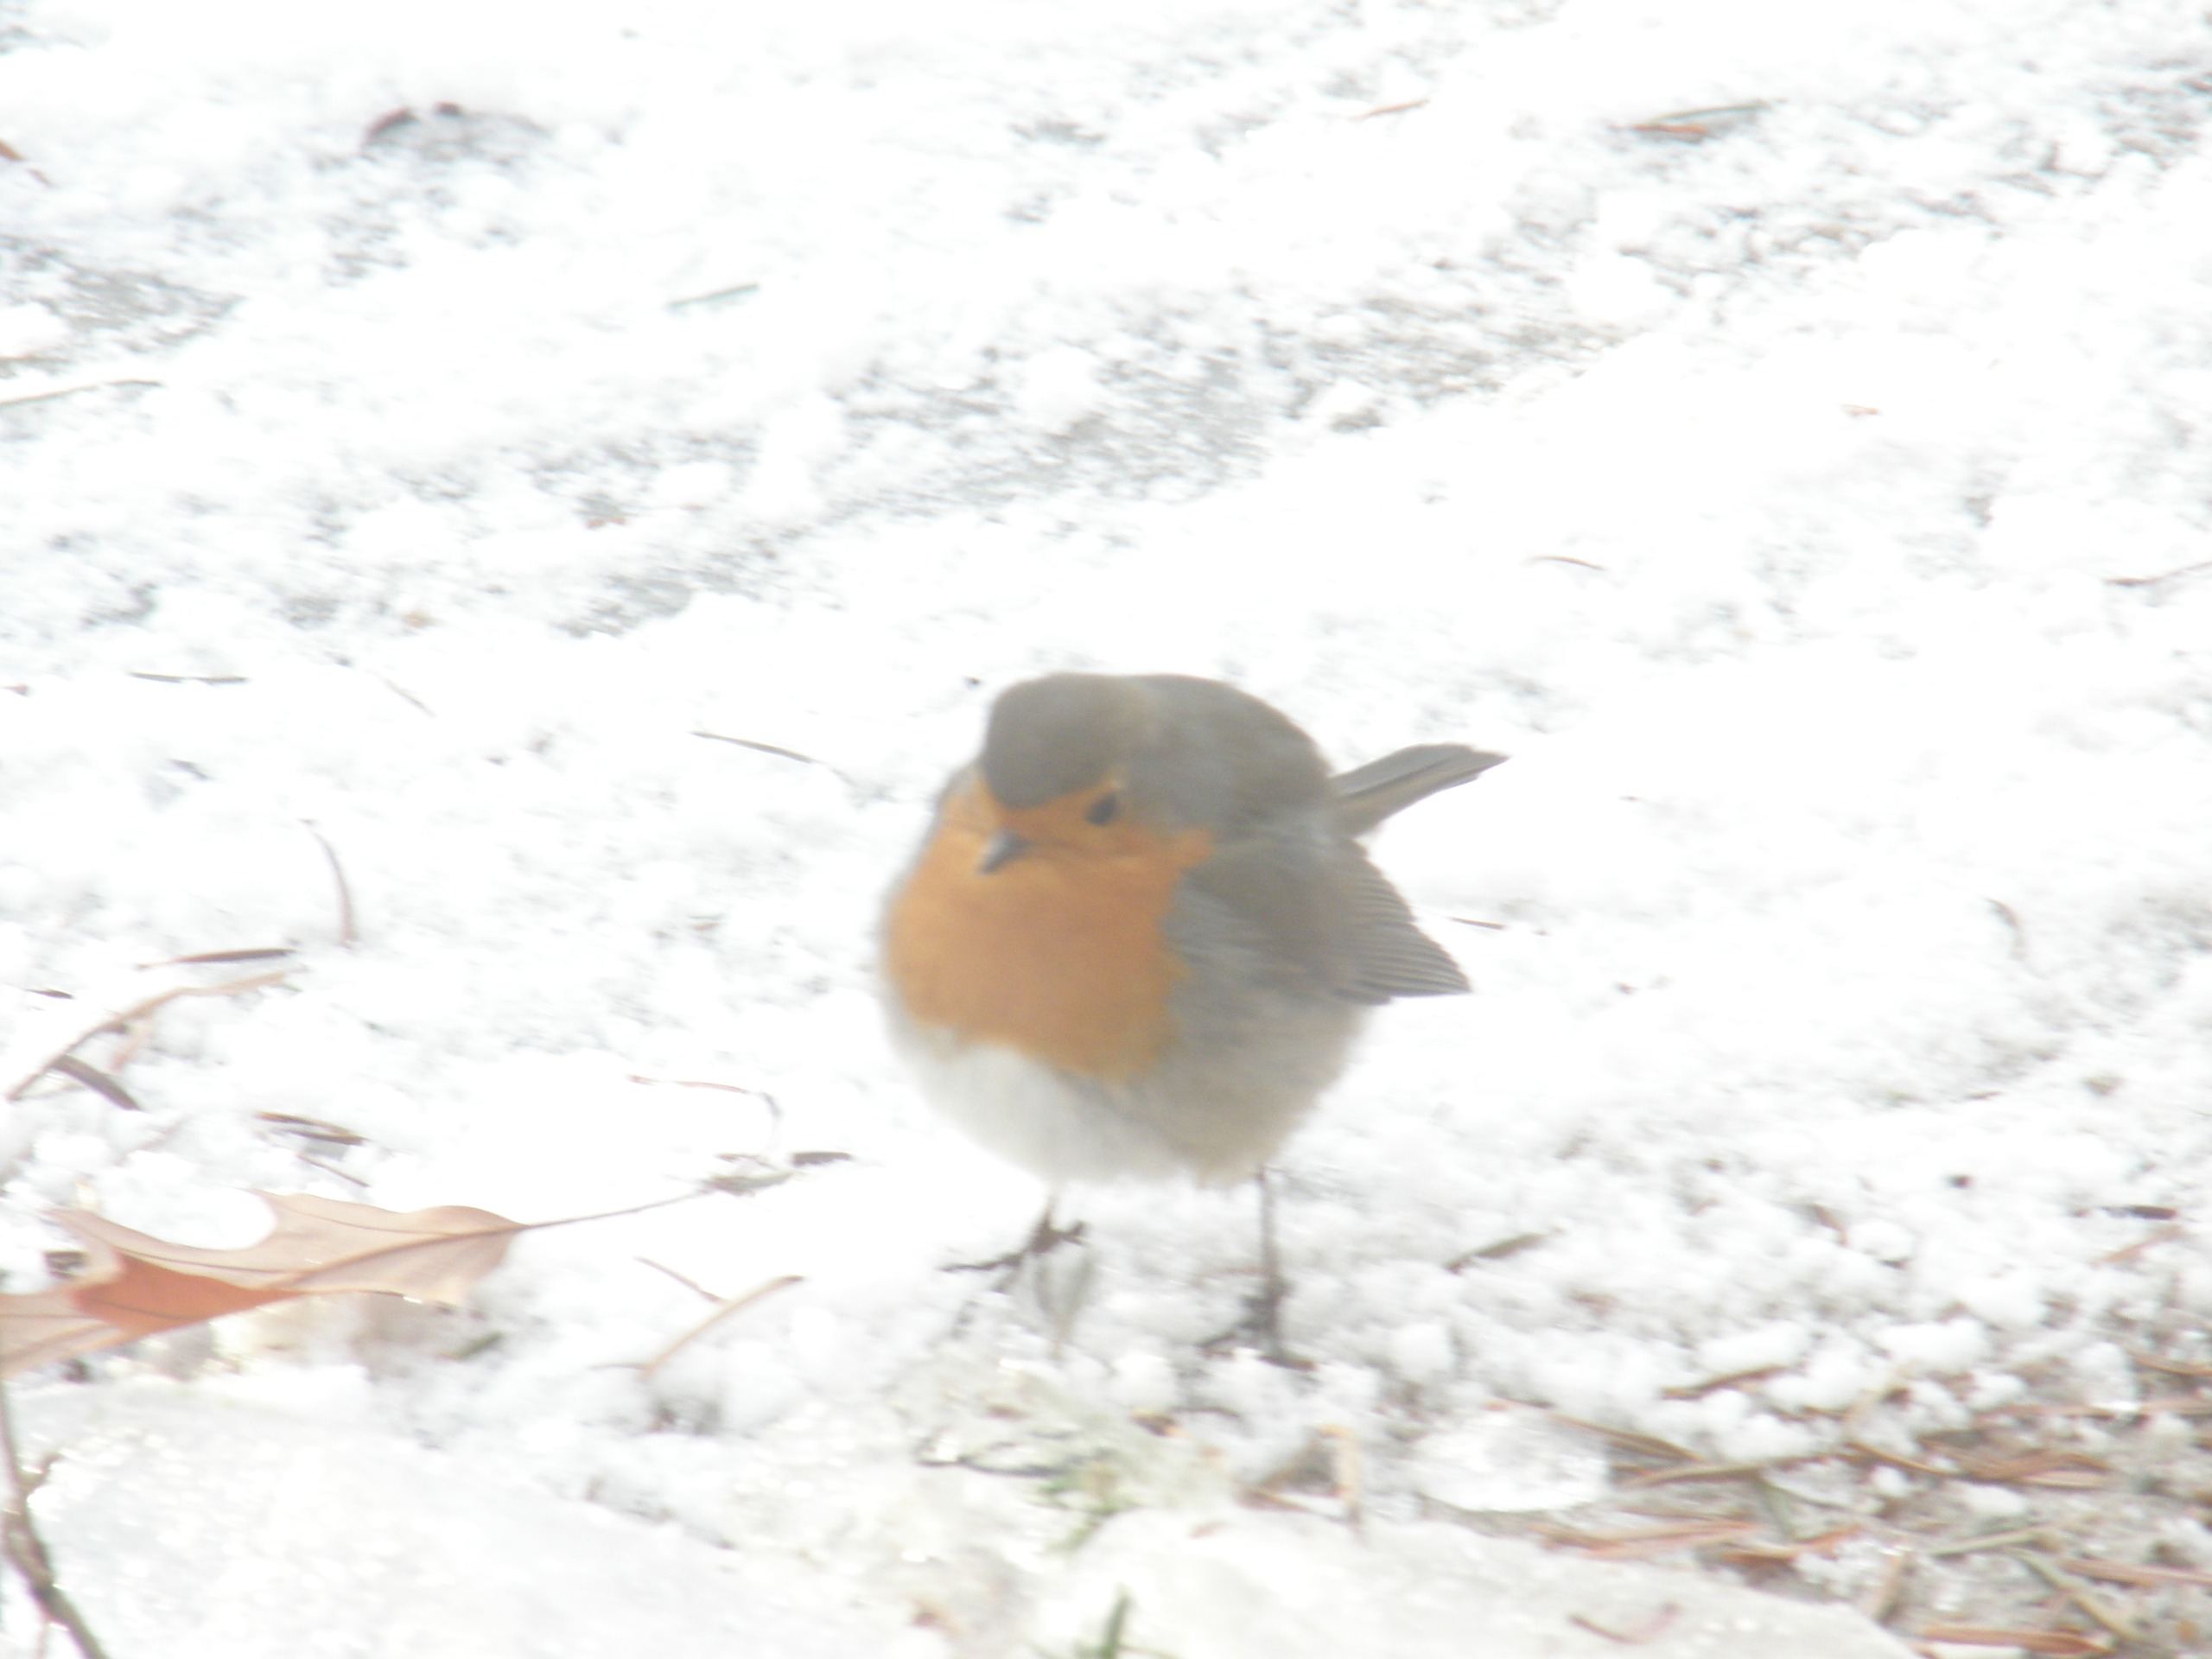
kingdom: Animalia
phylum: Chordata
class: Aves
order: Passeriformes
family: Muscicapidae
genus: Erithacus
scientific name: Erithacus rubecula
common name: Rødhals/rødkælk
